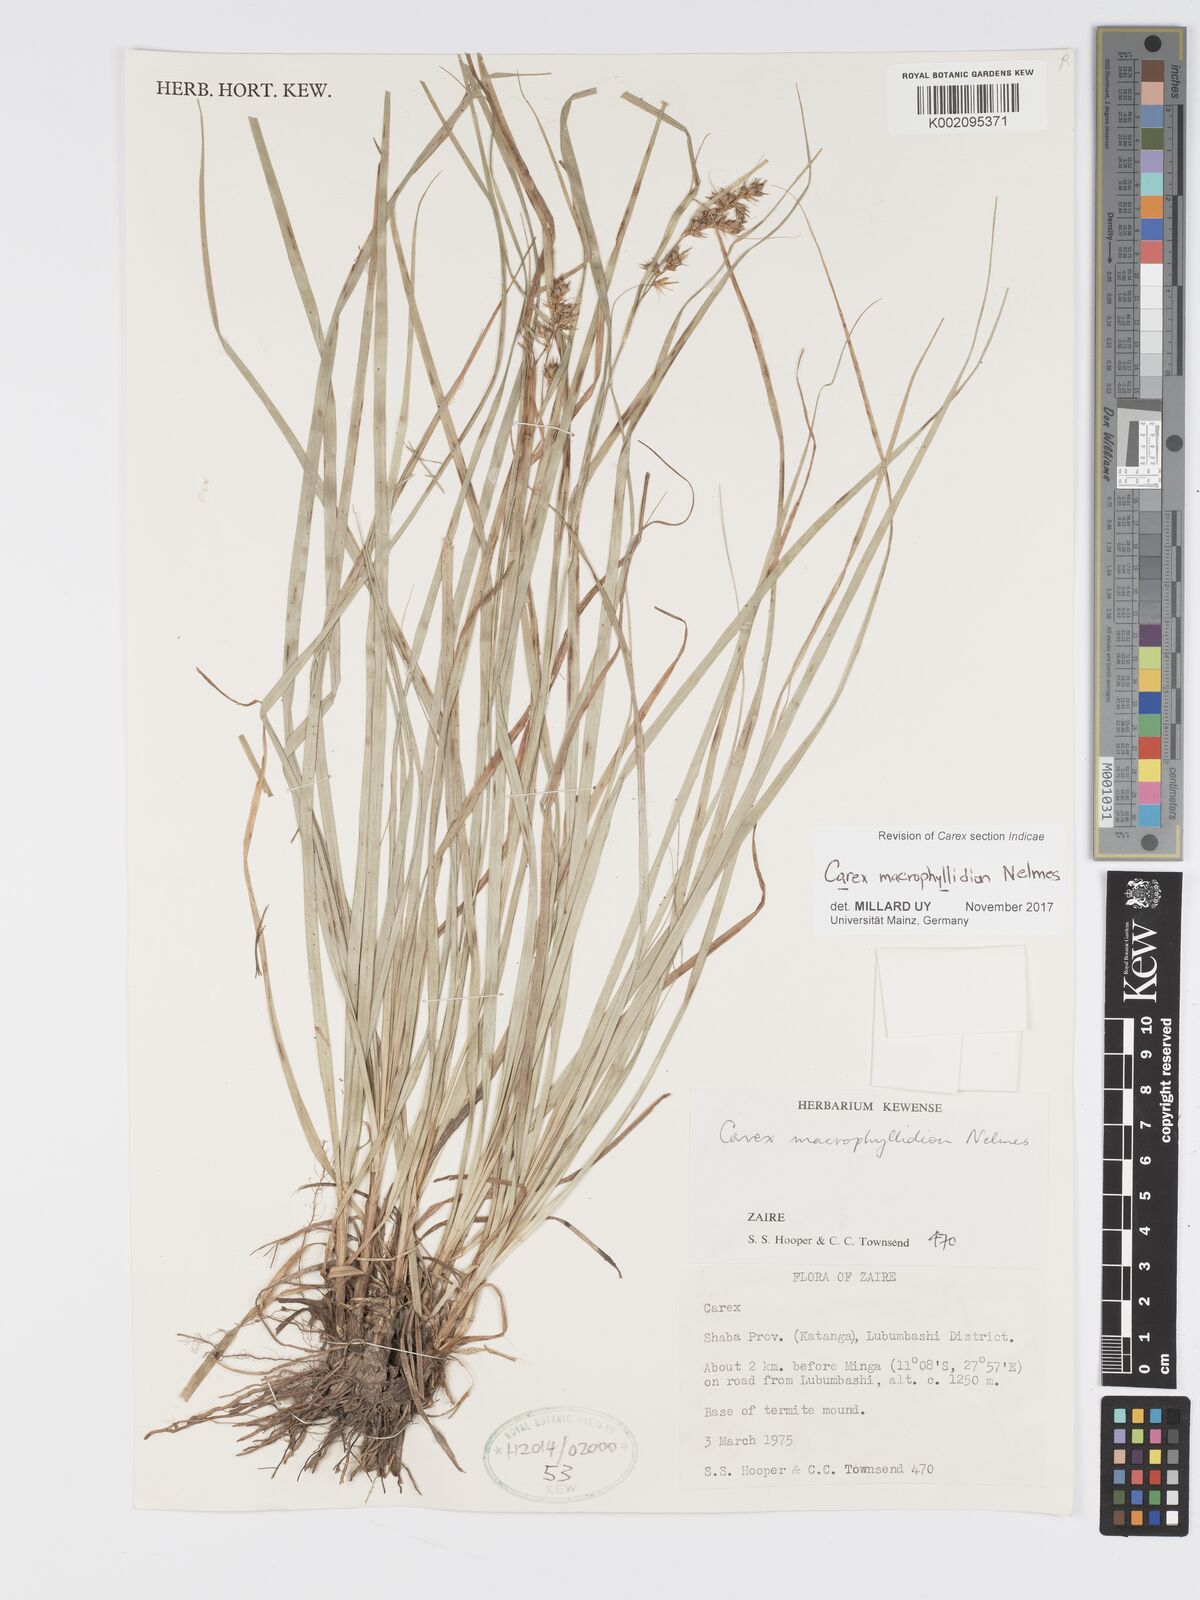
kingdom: Plantae
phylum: Tracheophyta
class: Liliopsida
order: Poales
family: Cyperaceae
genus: Carex
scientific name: Carex macrophyllidion
